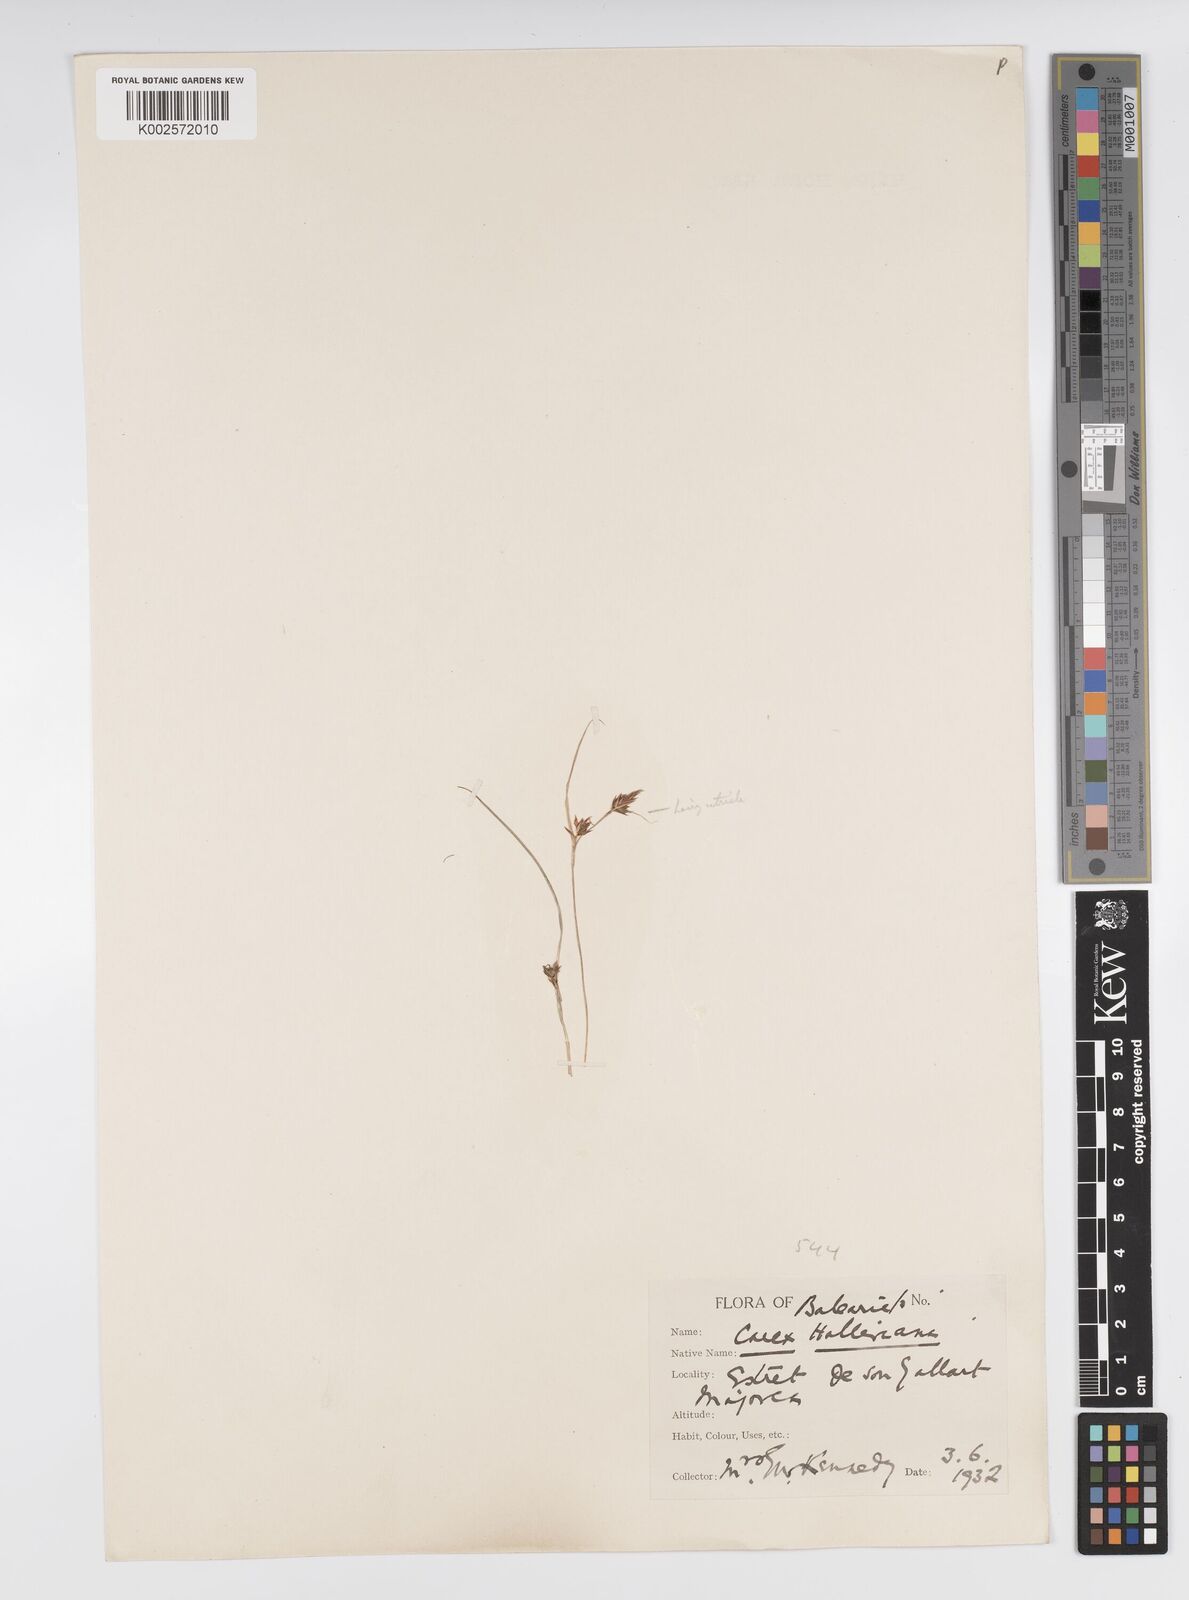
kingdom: Plantae
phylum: Tracheophyta
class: Liliopsida
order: Poales
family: Cyperaceae
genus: Carex
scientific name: Carex halleriana
